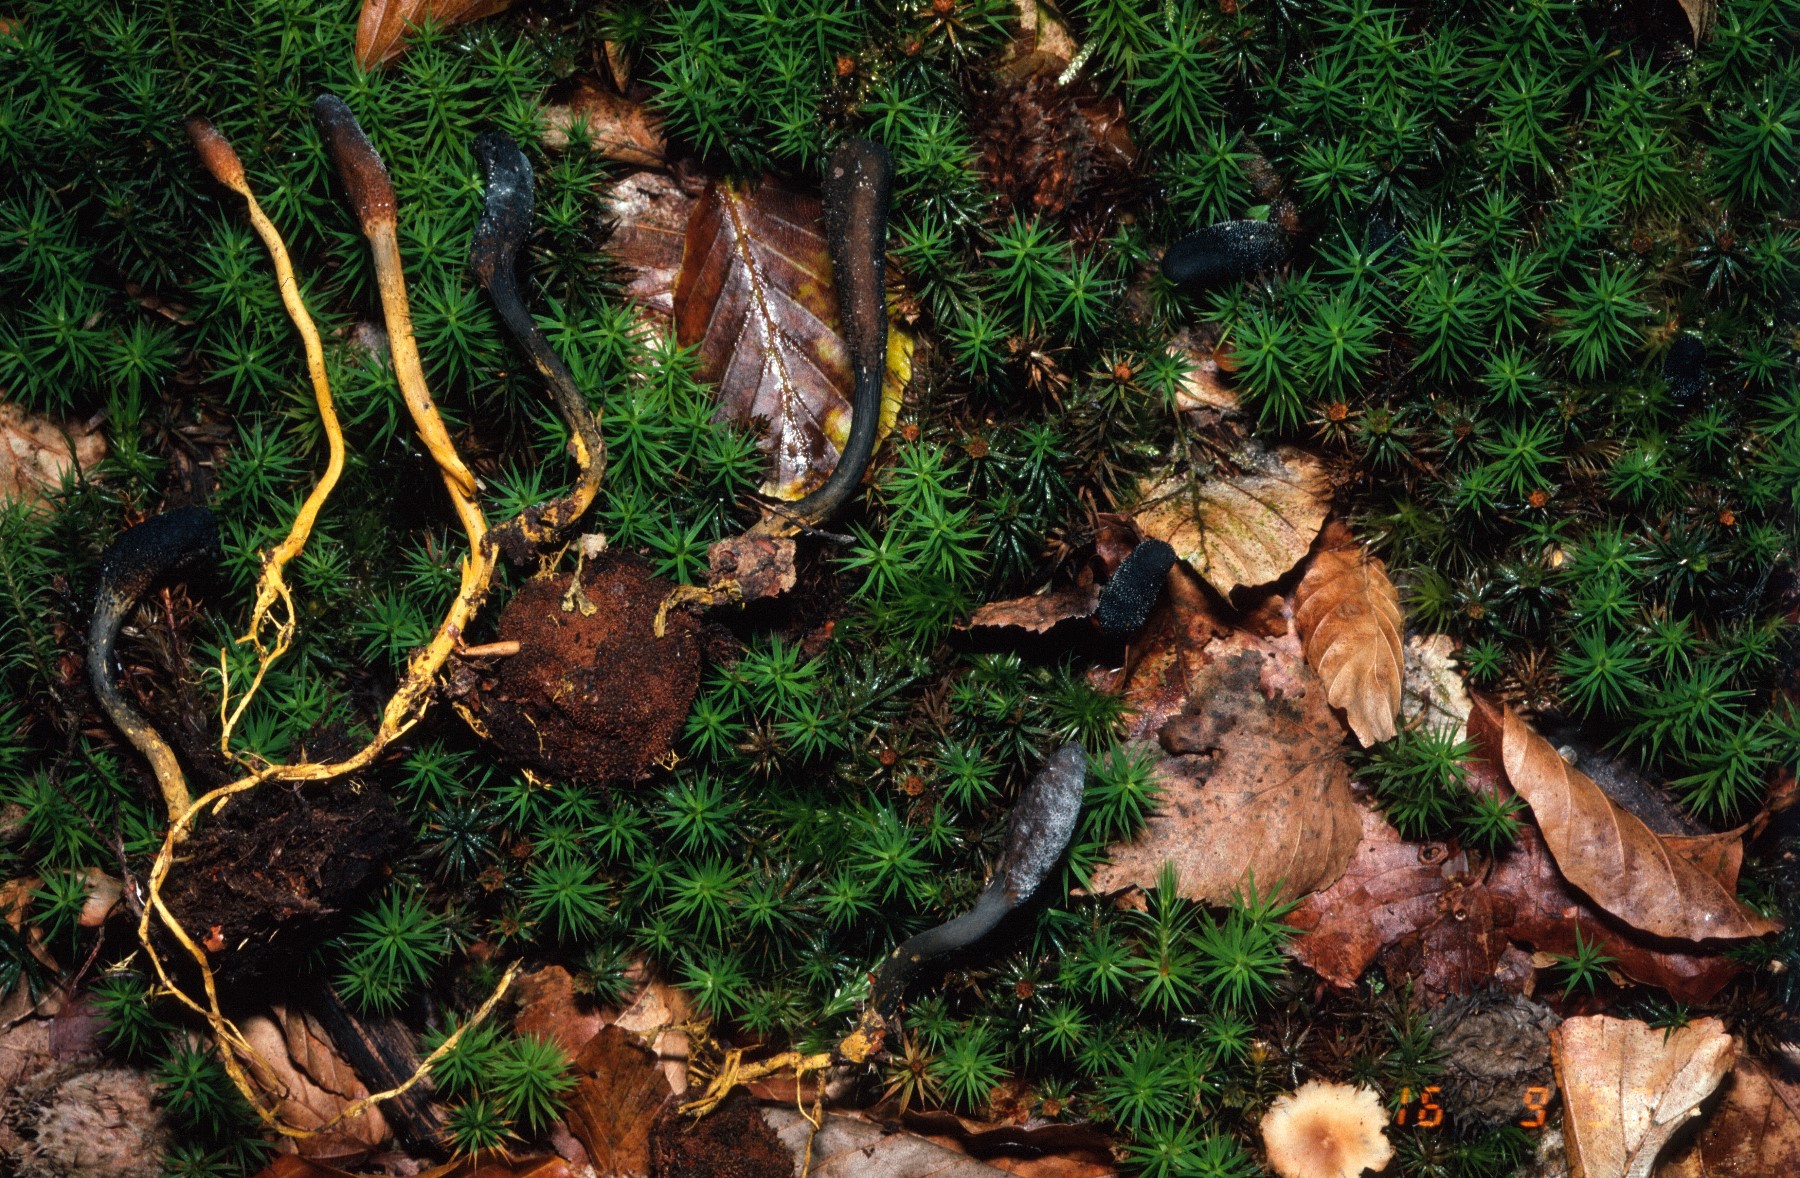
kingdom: Fungi
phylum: Ascomycota
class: Sordariomycetes
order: Hypocreales
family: Ophiocordycipitaceae
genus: Tolypocladium
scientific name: Tolypocladium ophioglossoides
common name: slank snyltekølle
